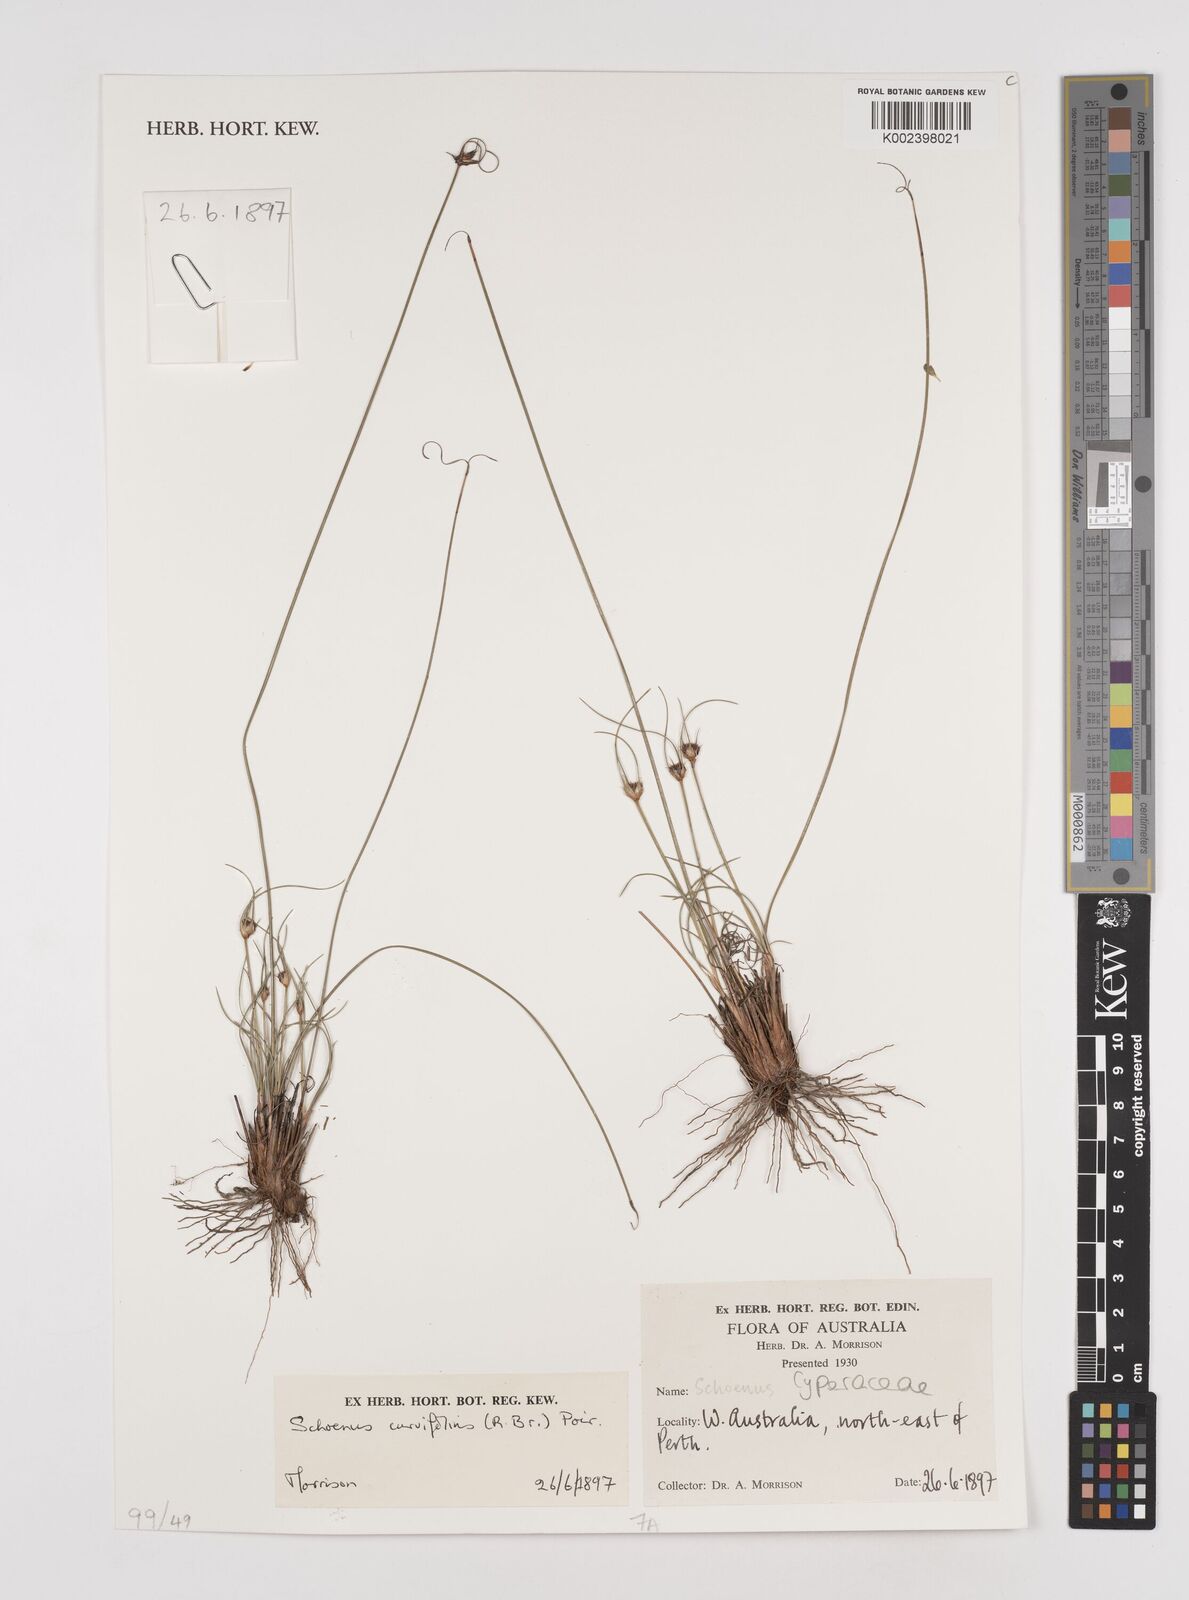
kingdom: Plantae
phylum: Tracheophyta
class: Liliopsida
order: Poales
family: Cyperaceae
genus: Schoenus
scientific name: Schoenus curvifolius
